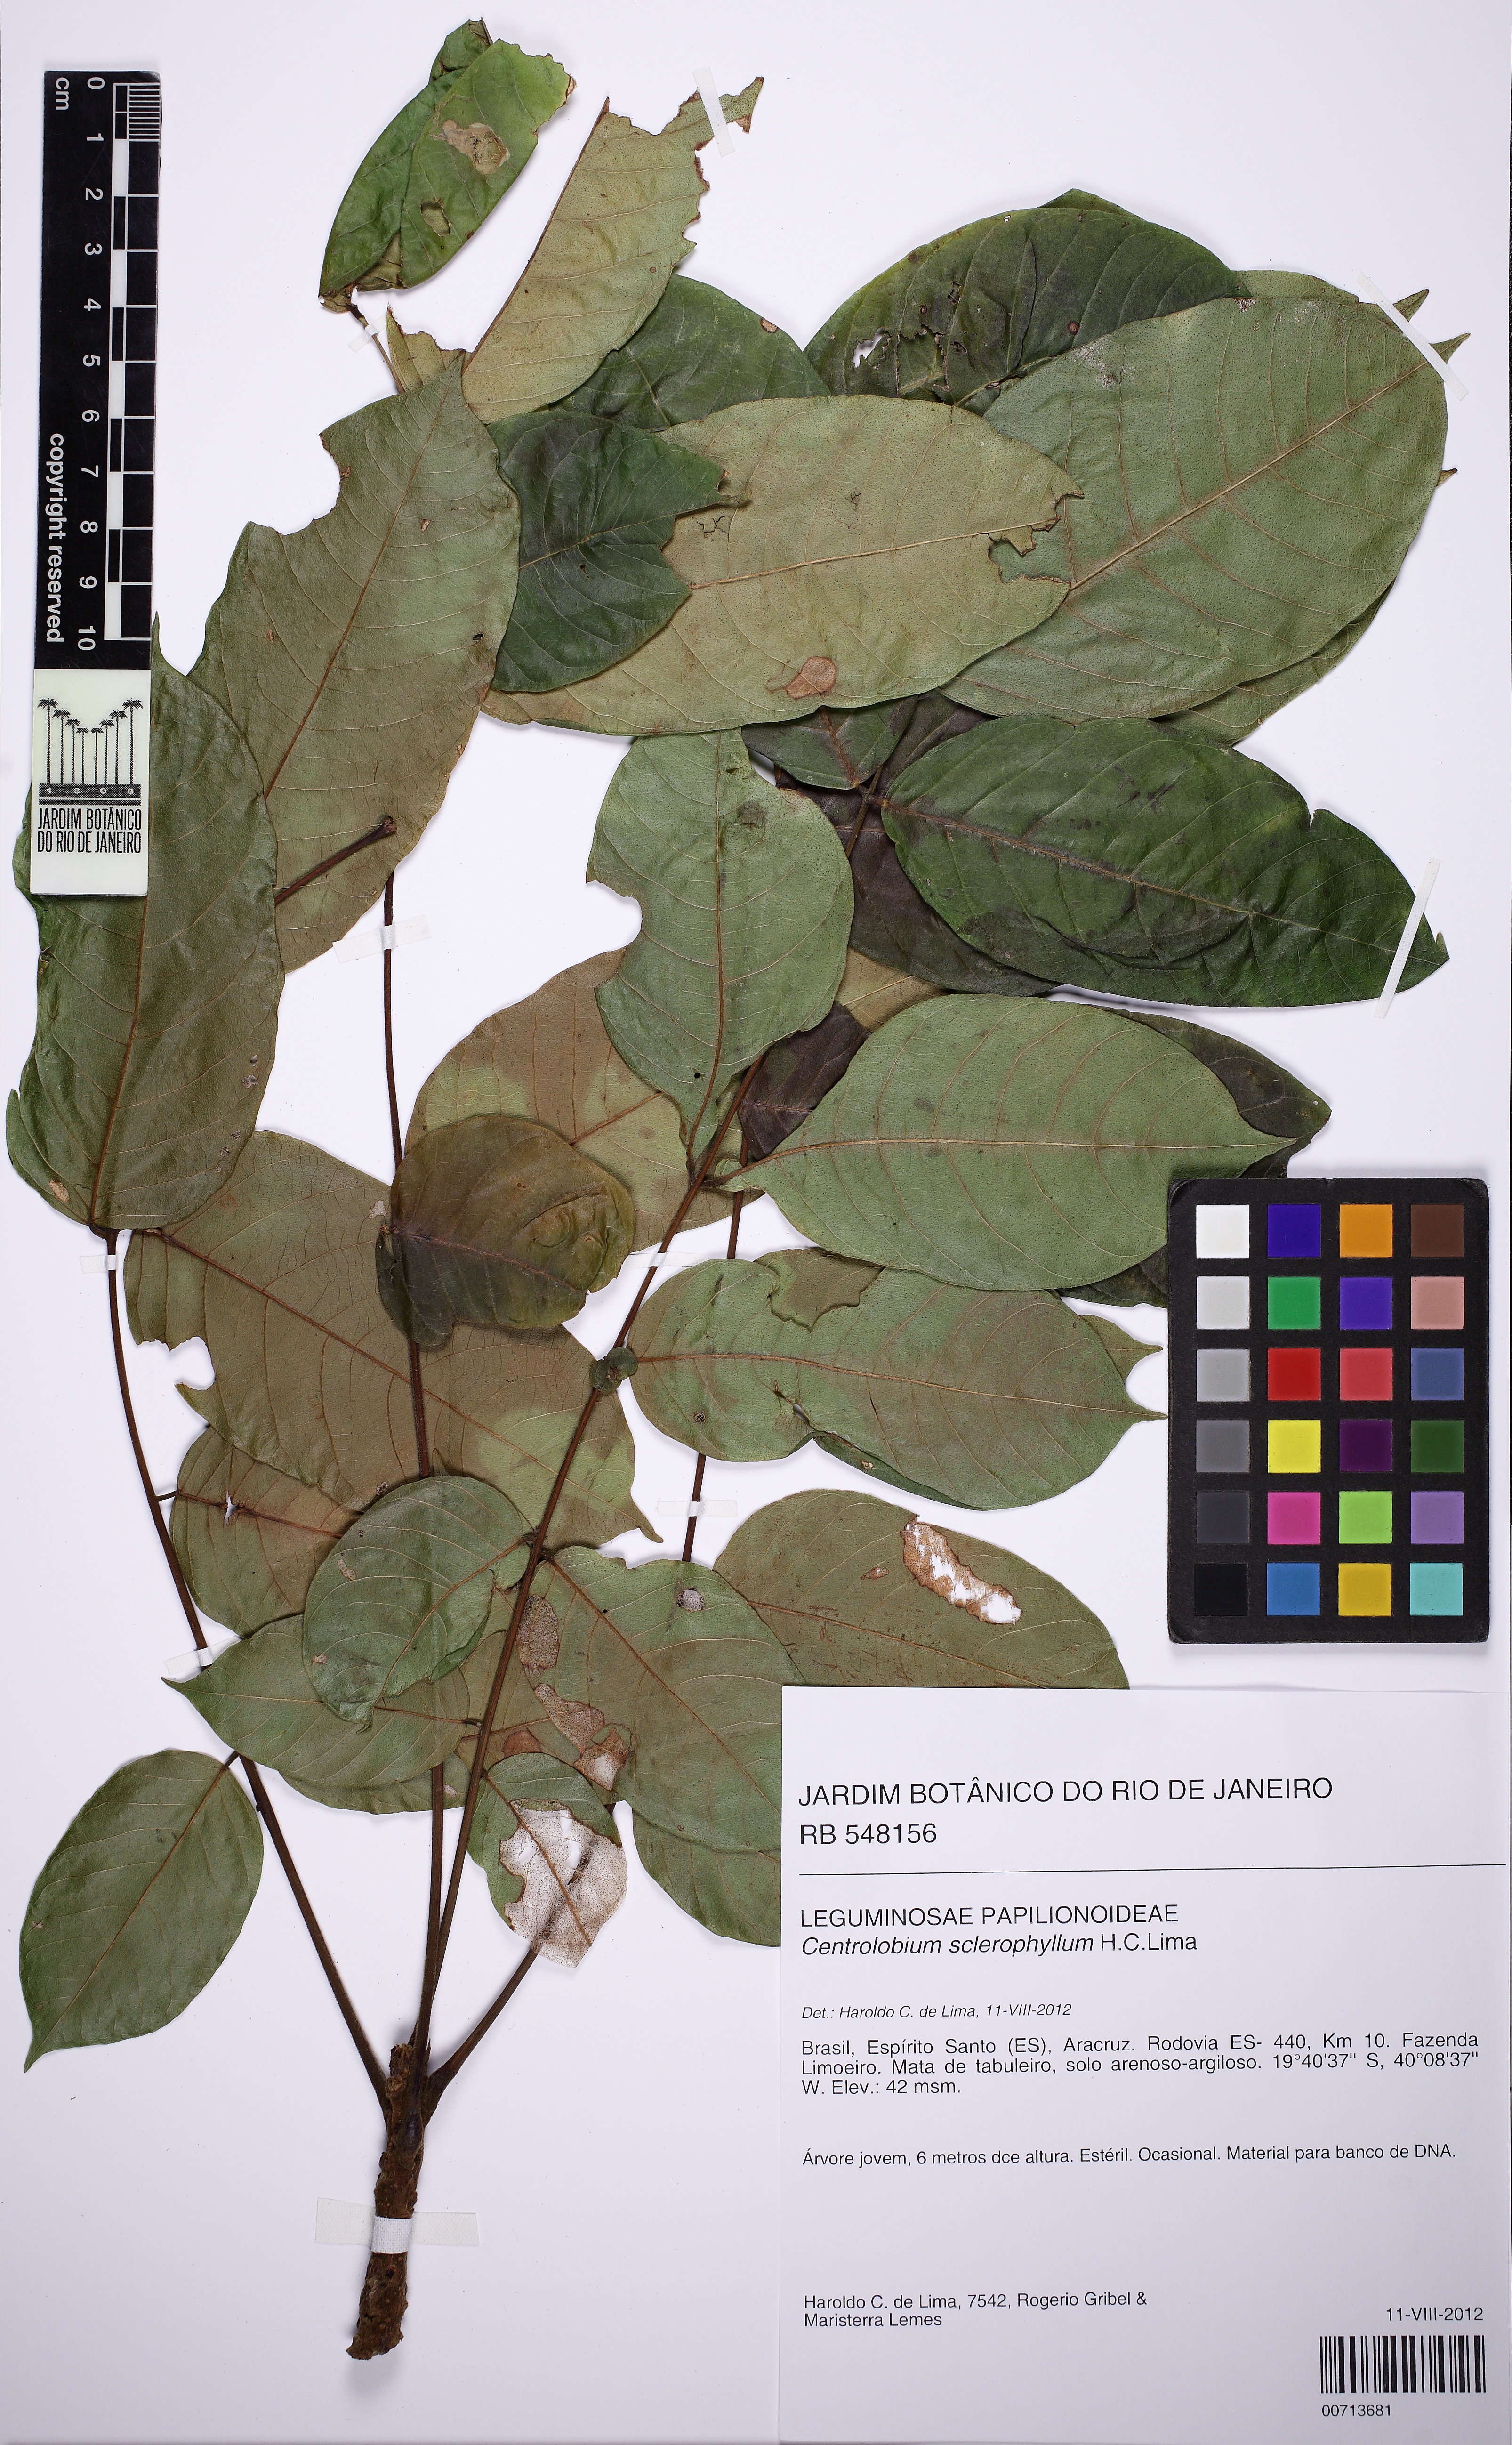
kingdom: Plantae
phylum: Tracheophyta
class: Magnoliopsida
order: Fabales
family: Fabaceae
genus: Centrolobium
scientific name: Centrolobium sclerophyllum
